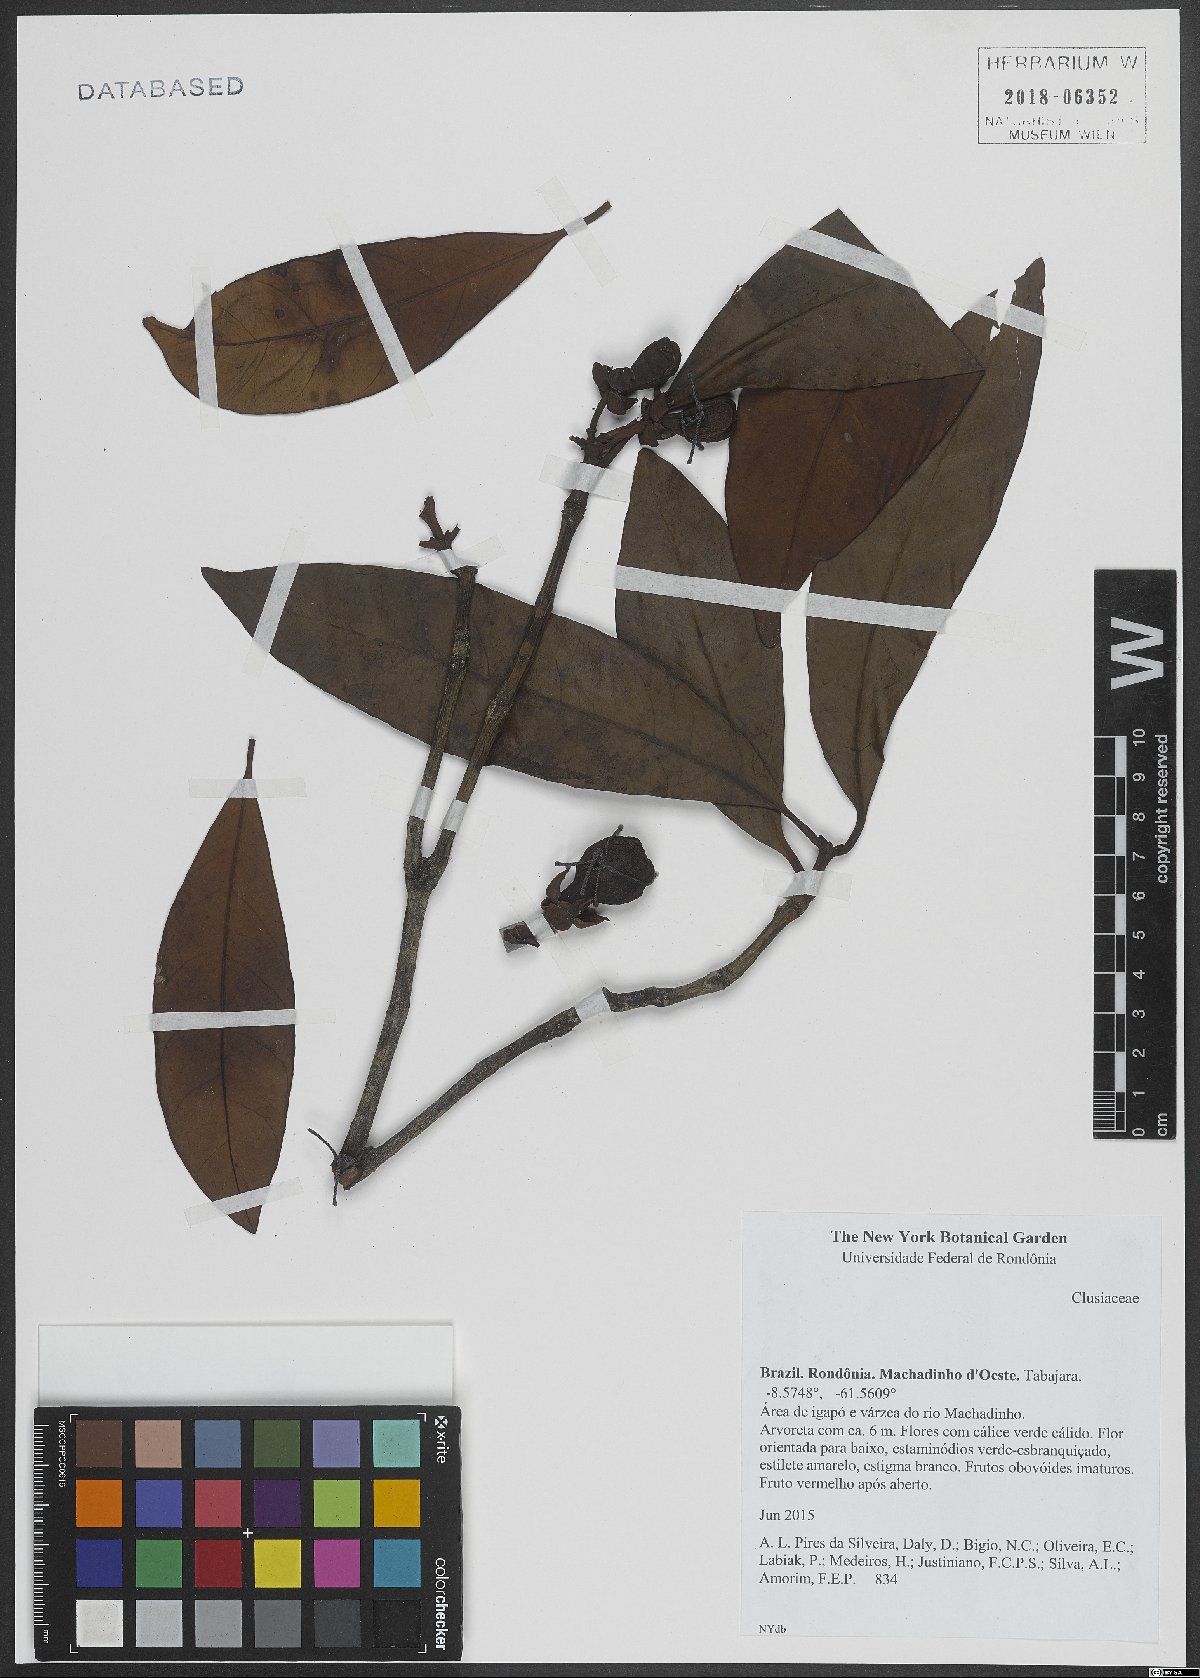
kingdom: Plantae
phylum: Tracheophyta
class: Magnoliopsida
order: Malpighiales
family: Clusiaceae
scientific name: Clusiaceae
